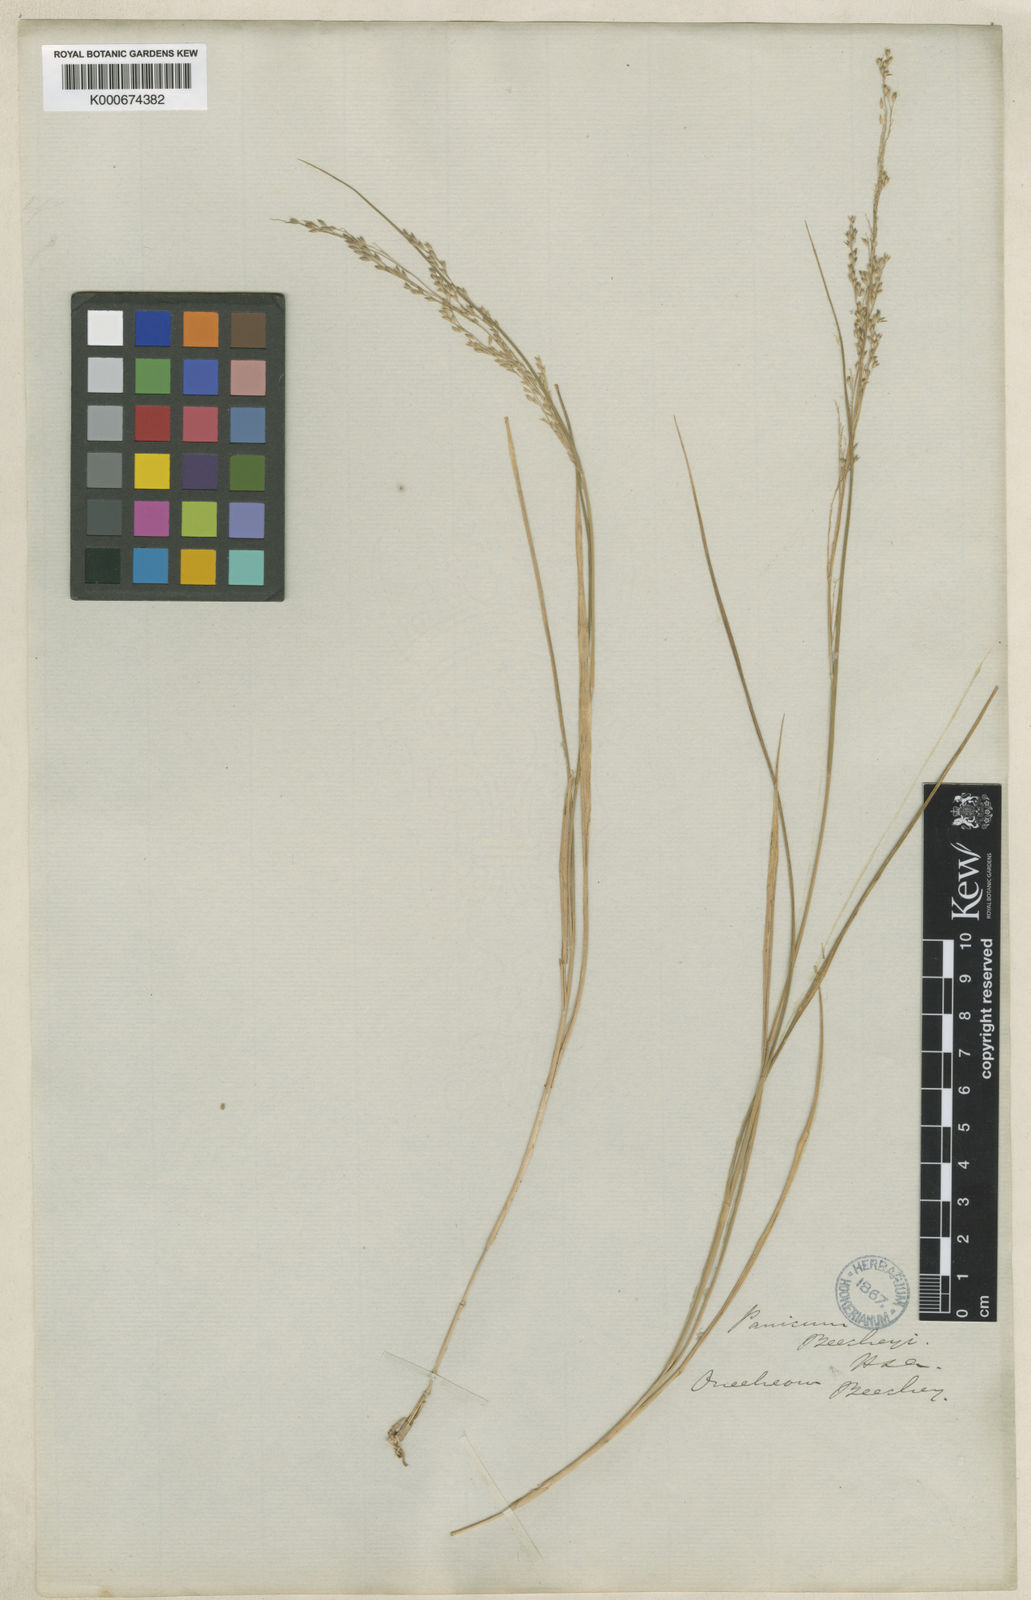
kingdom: Plantae
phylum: Tracheophyta
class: Liliopsida
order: Poales
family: Poaceae
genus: Panicum
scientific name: Panicum beecheyi
